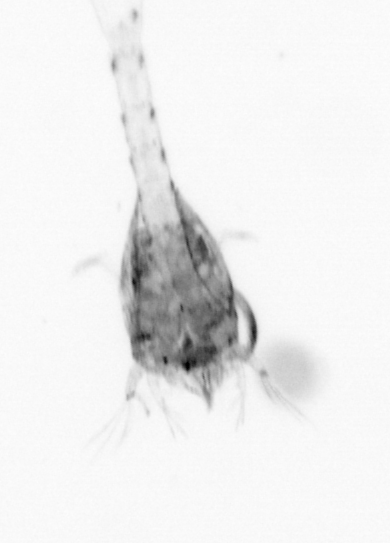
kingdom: Animalia
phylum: Arthropoda
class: Malacostraca
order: Decapoda
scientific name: Decapoda
